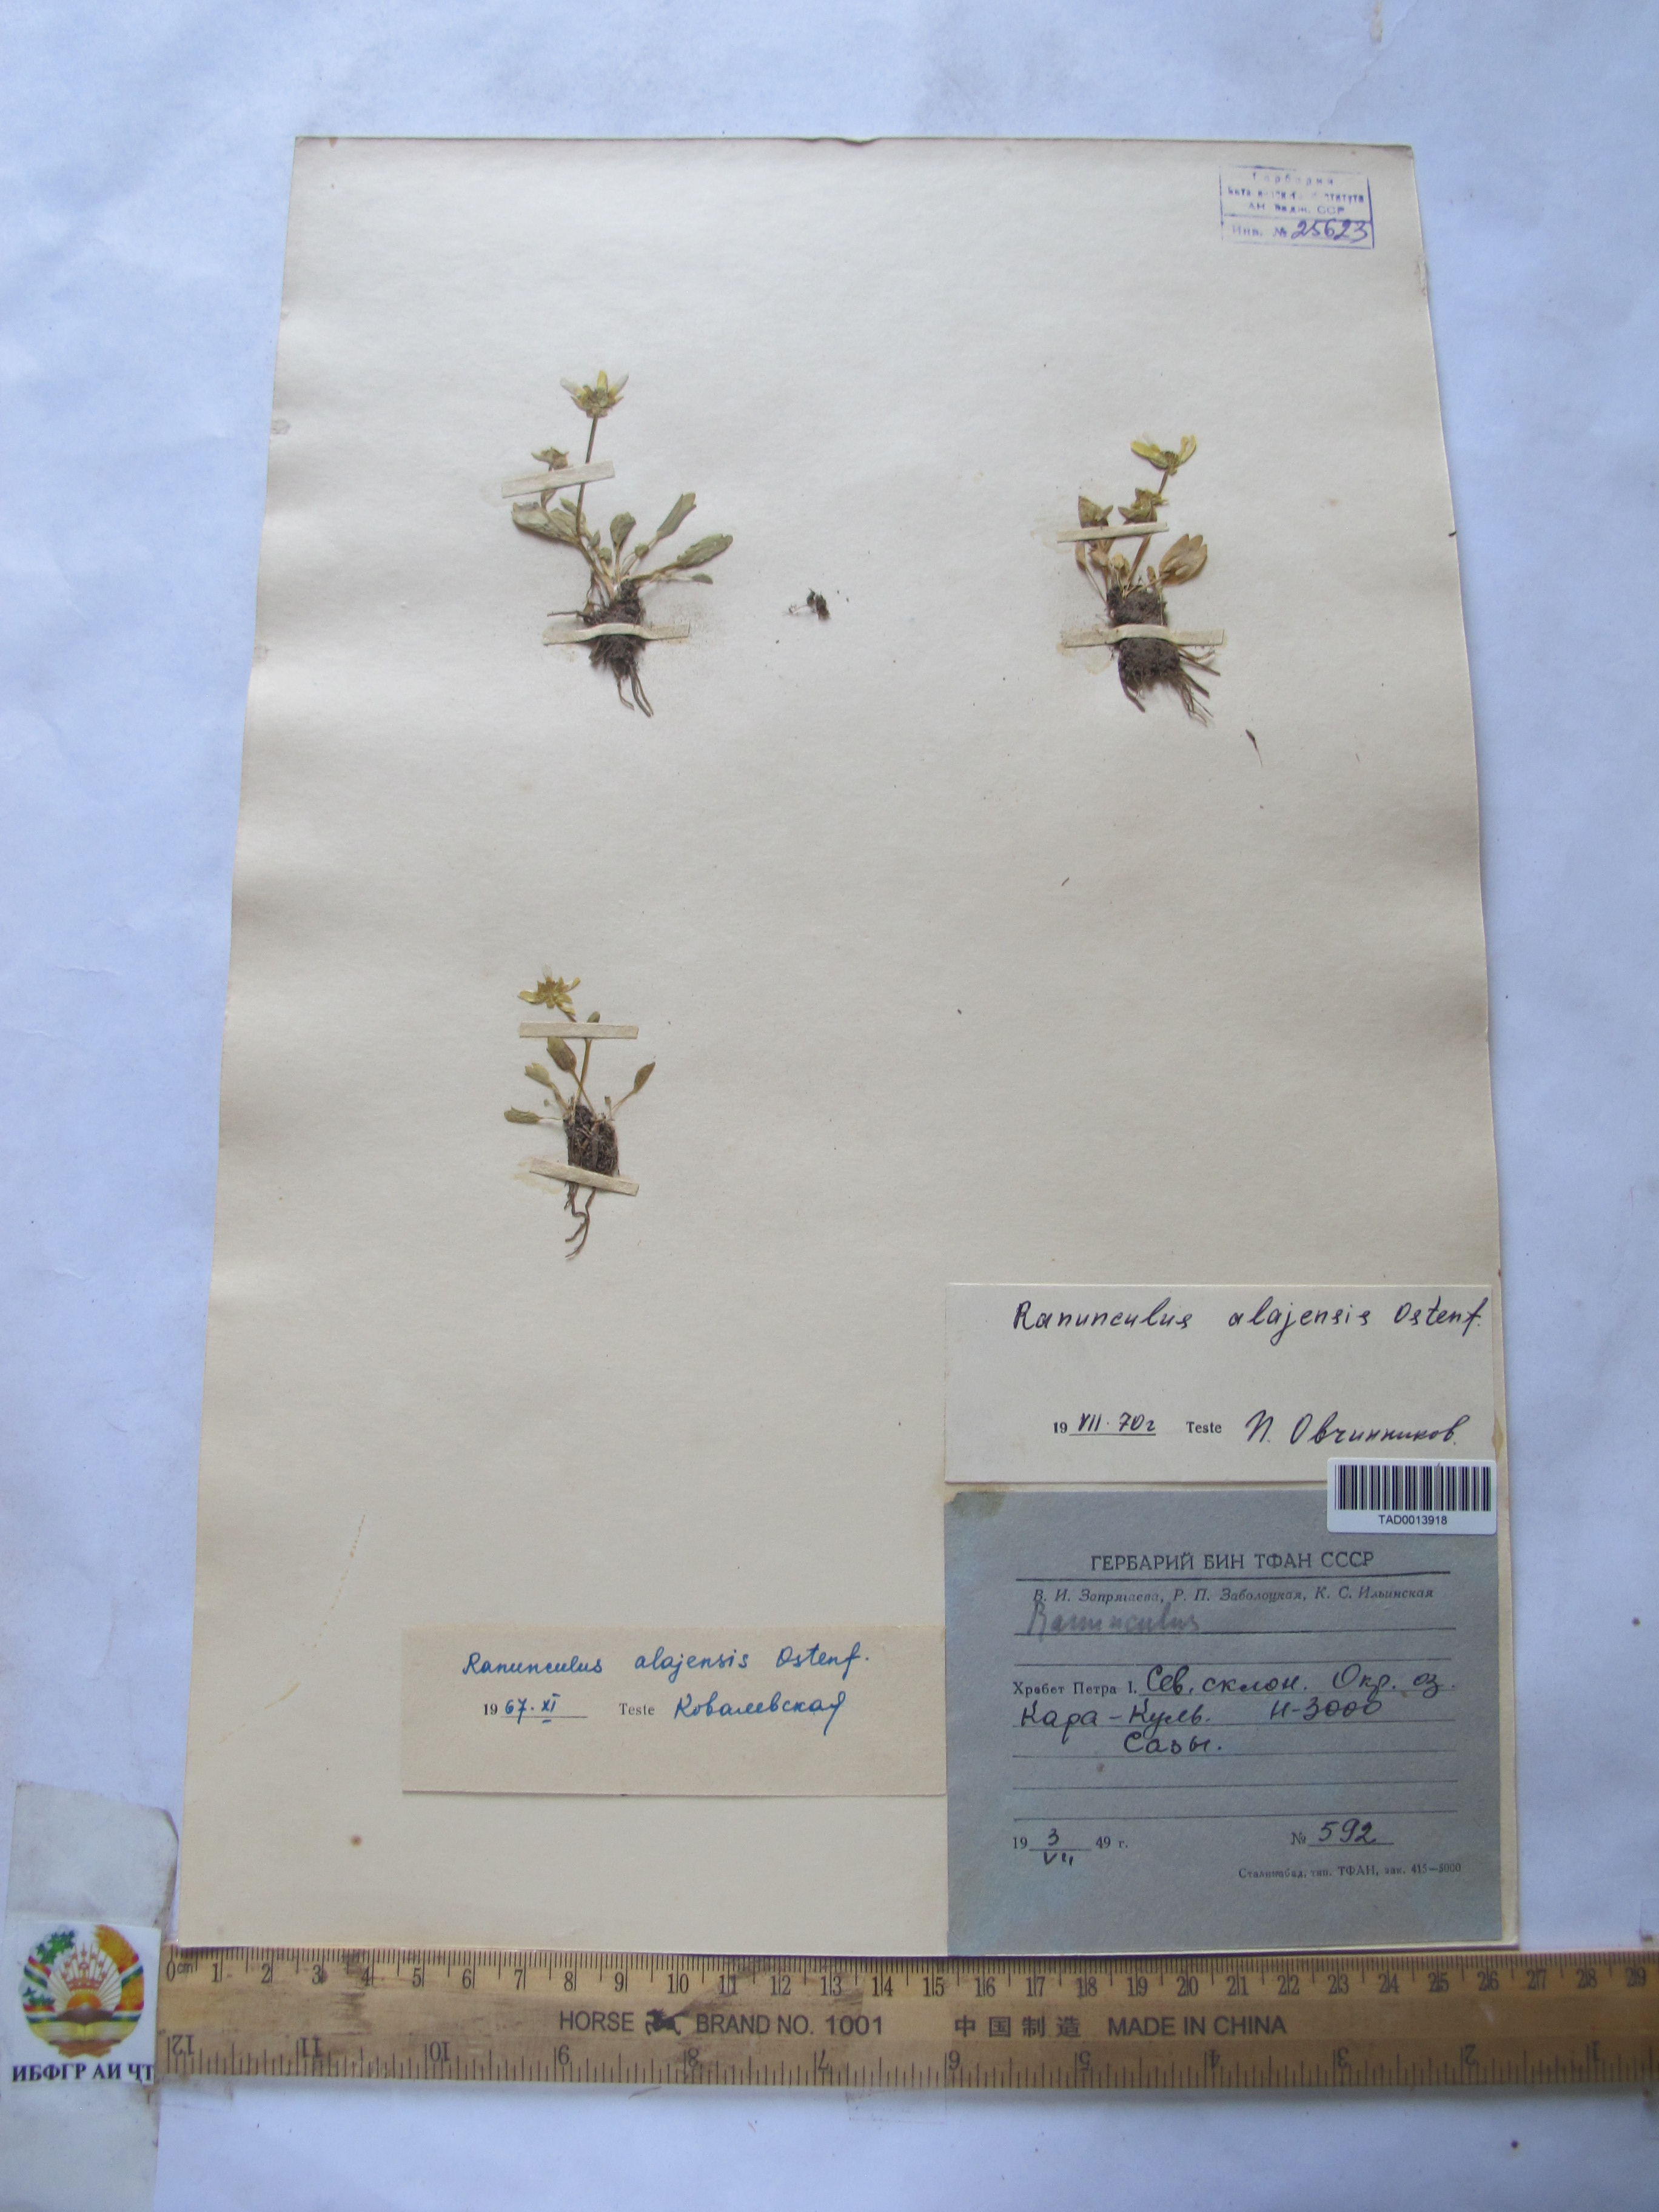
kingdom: Plantae
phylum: Tracheophyta
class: Magnoliopsida
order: Ranunculales
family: Ranunculaceae
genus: Ranunculus
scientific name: Ranunculus alaiensis
